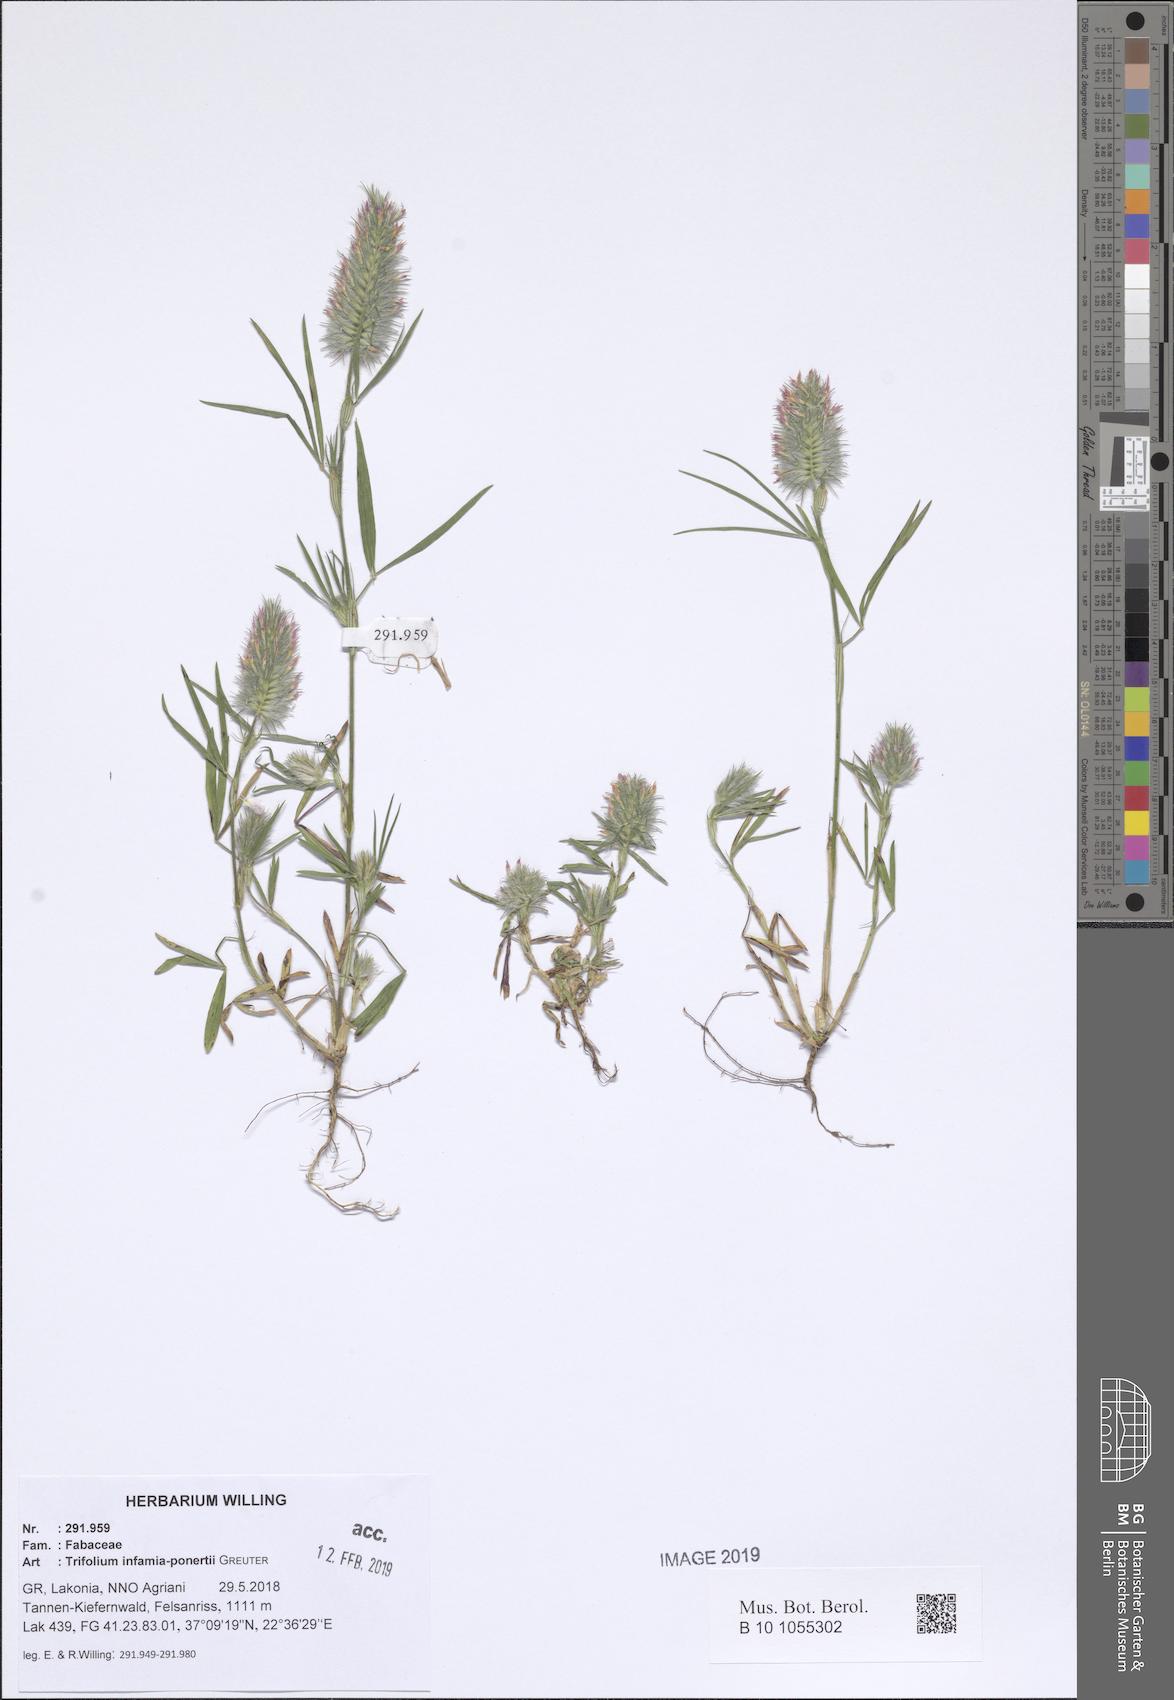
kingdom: Plantae
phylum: Tracheophyta
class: Magnoliopsida
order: Fabales
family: Fabaceae
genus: Trifolium
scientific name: Trifolium infamia-ponertii
